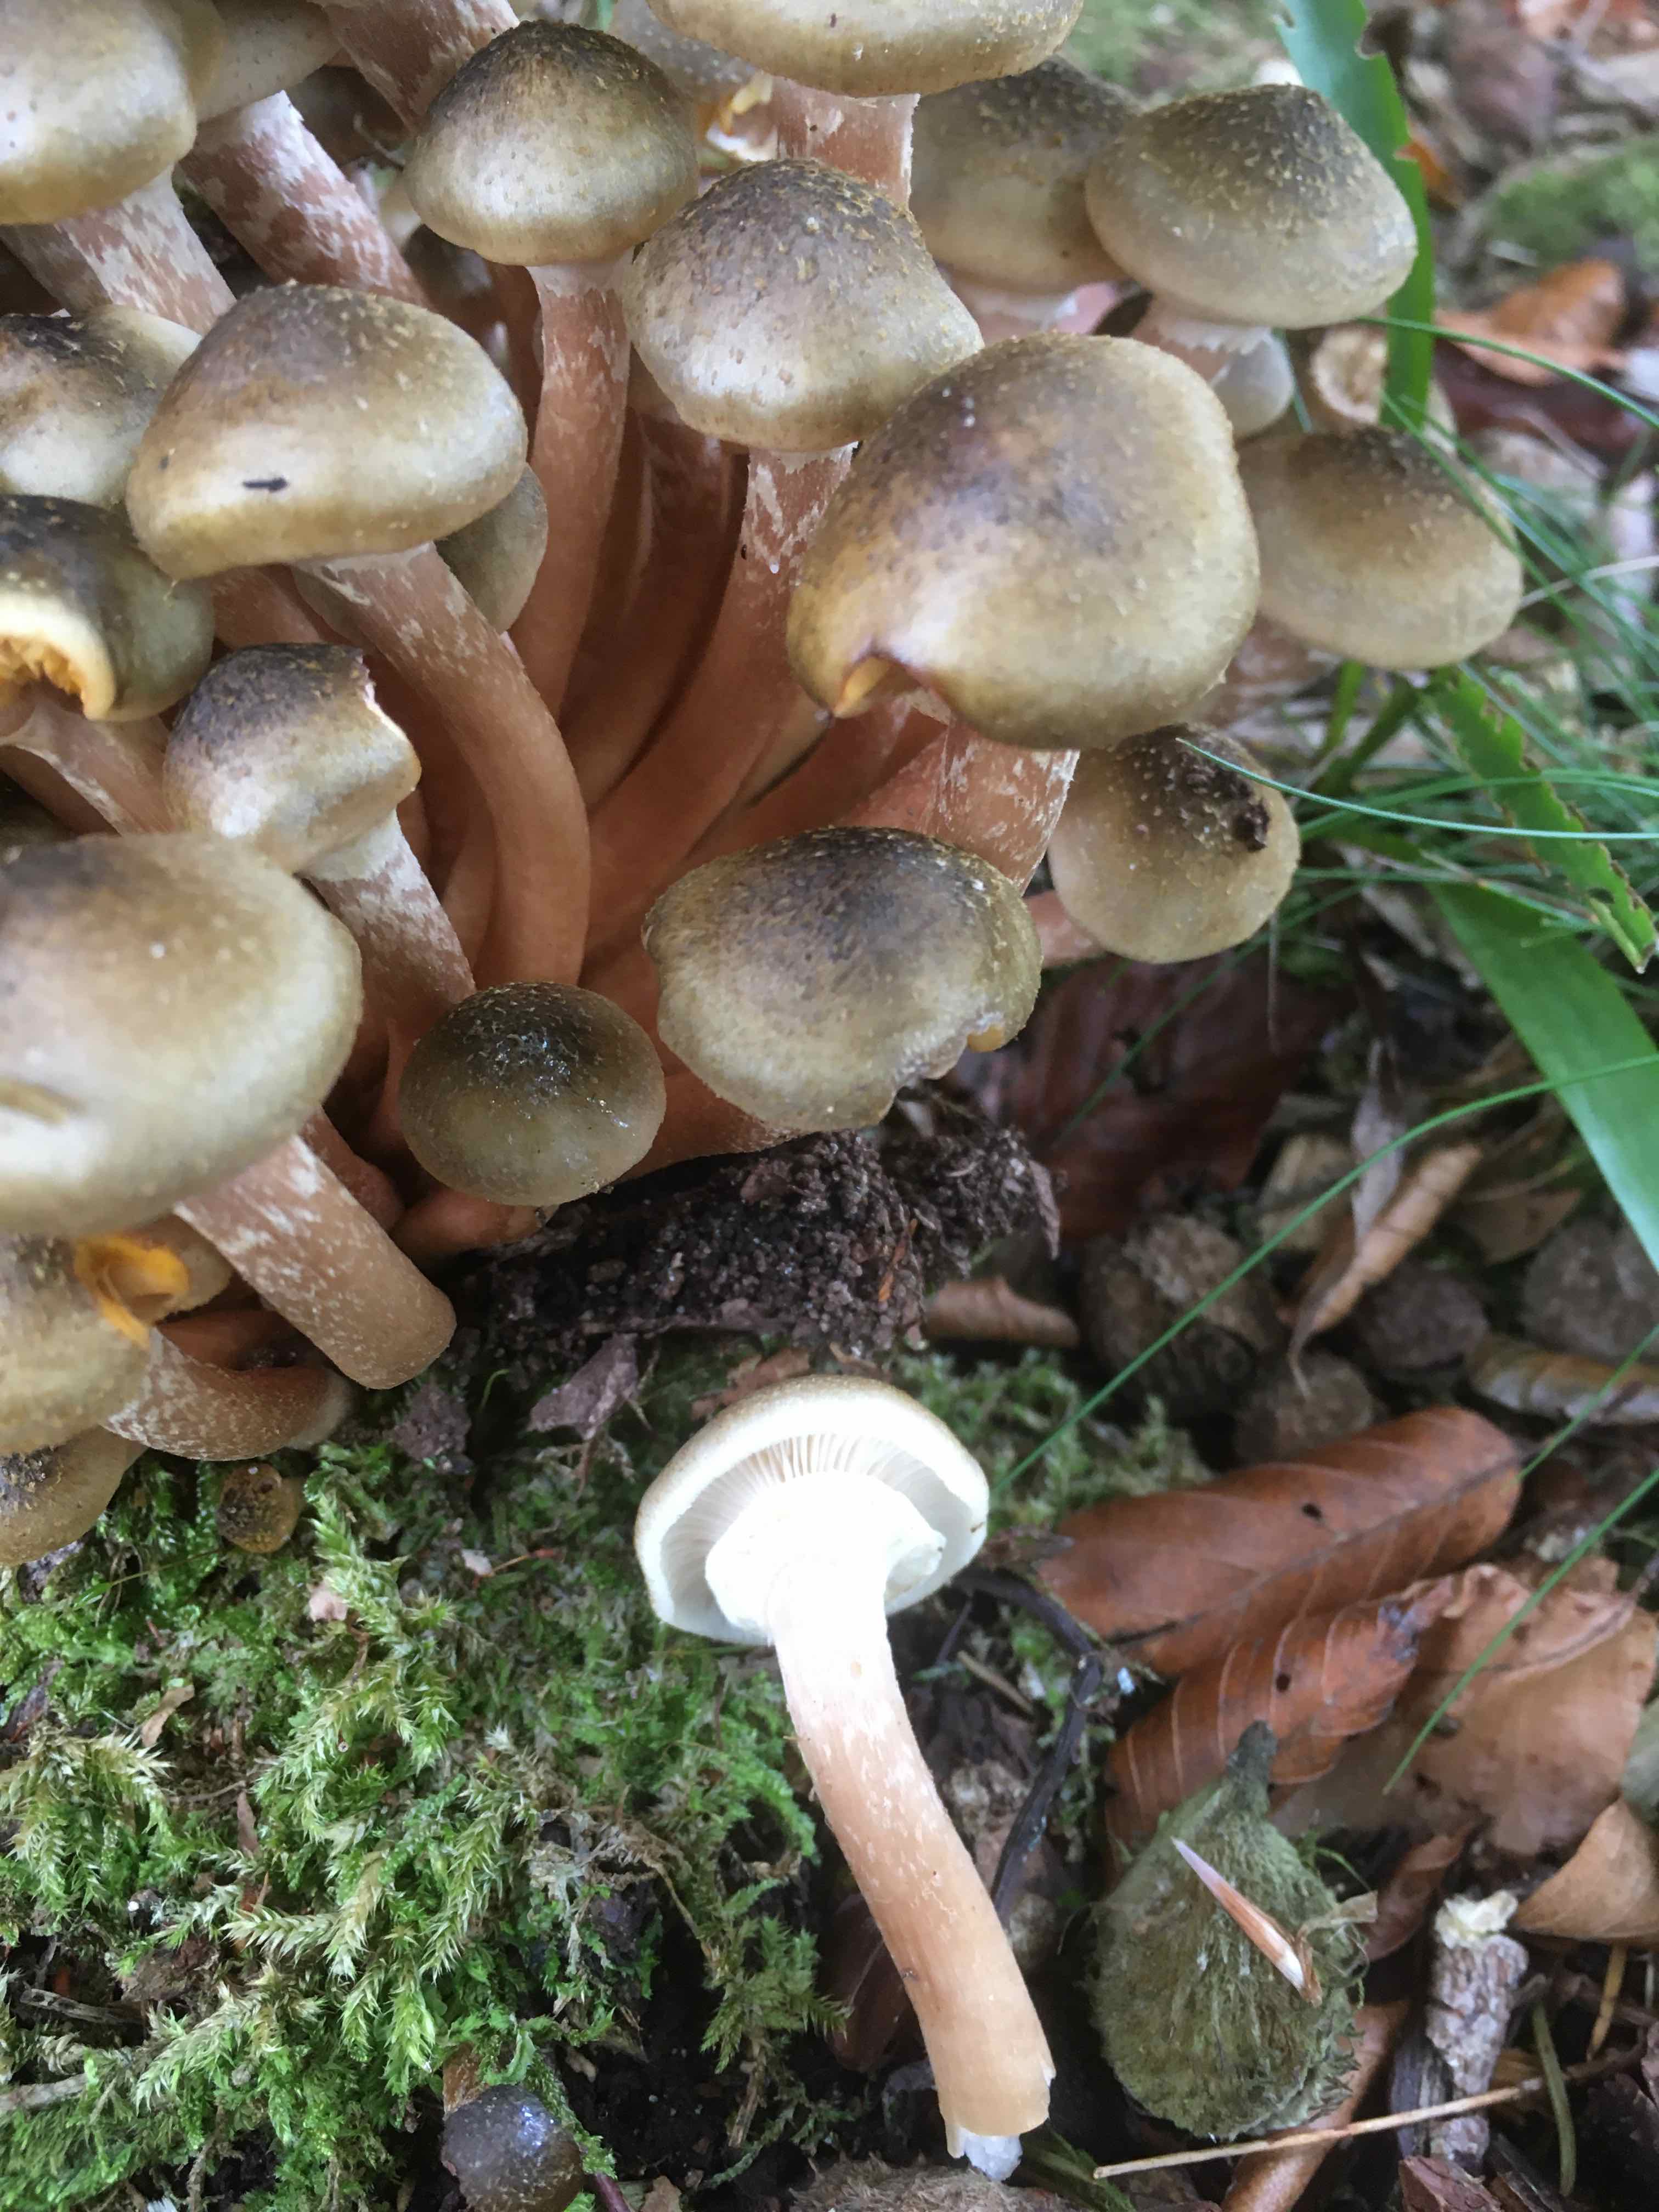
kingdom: Fungi
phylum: Basidiomycota
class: Agaricomycetes
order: Agaricales
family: Physalacriaceae
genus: Armillaria
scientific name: Armillaria mellea
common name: ægte honningsvamp
